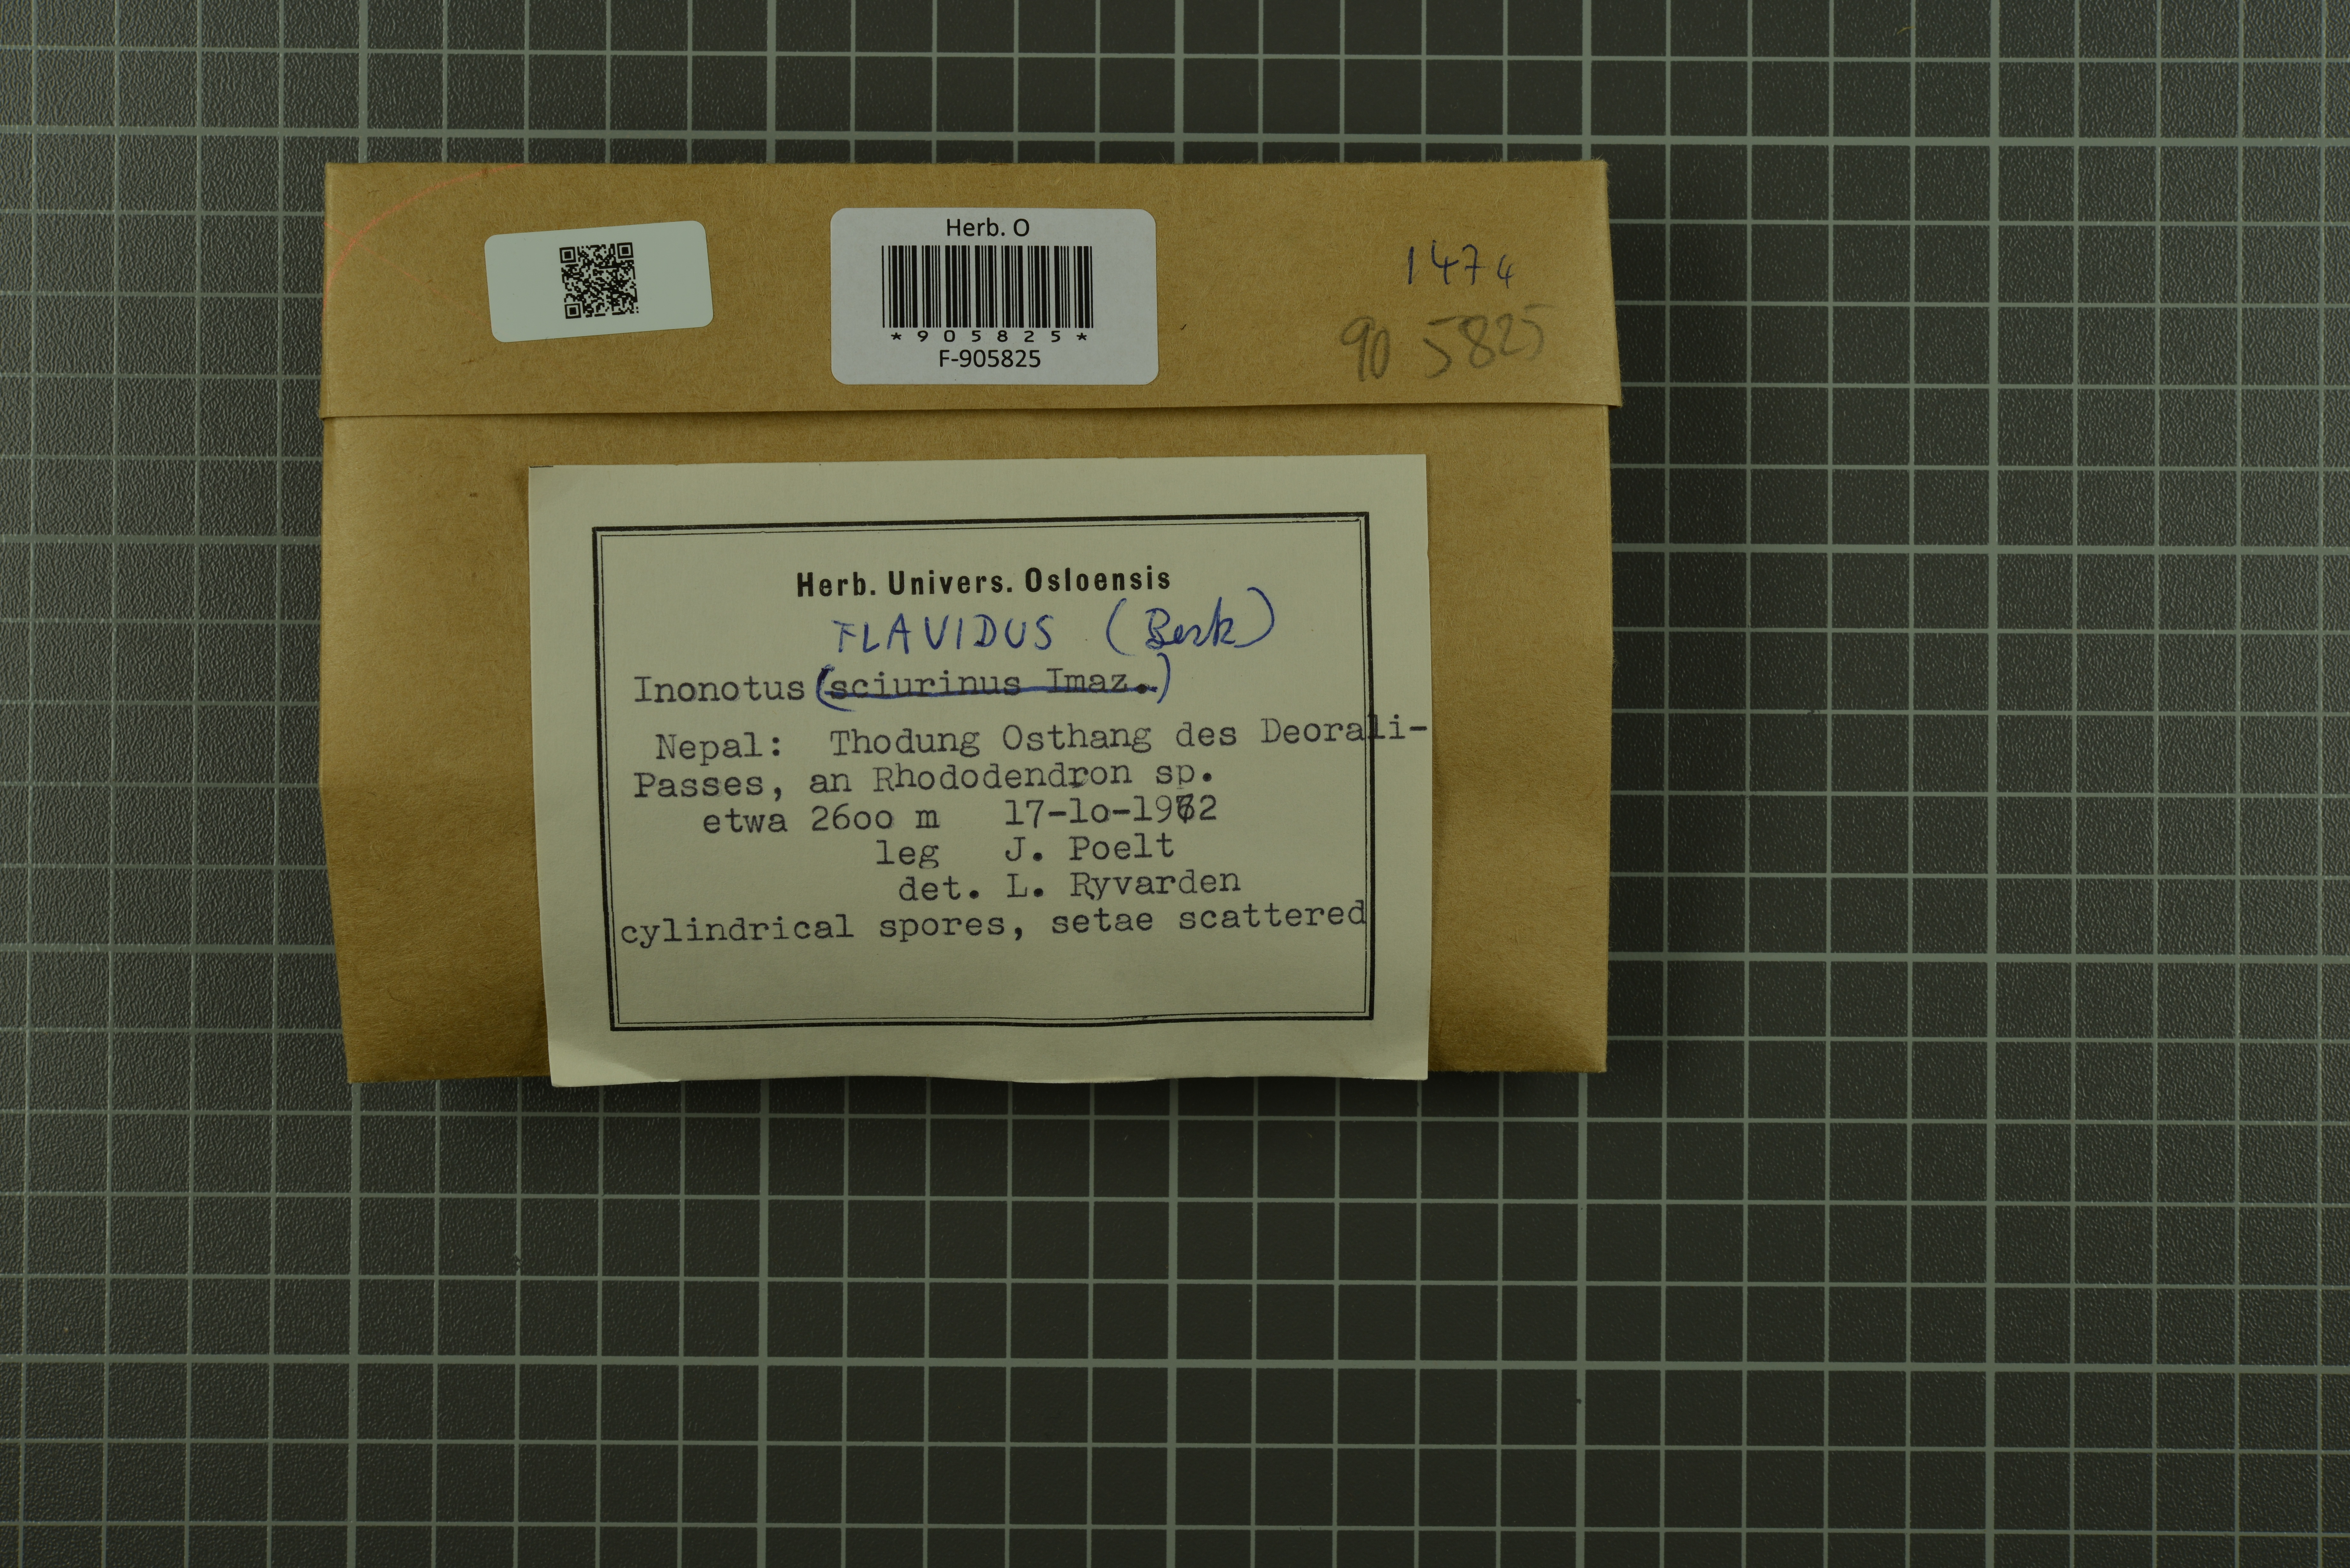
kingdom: Fungi
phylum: Basidiomycota
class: Agaricomycetes
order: Hymenochaetales
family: Hymenochaetaceae
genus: Cylindrosporus
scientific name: Cylindrosporus flavidus
